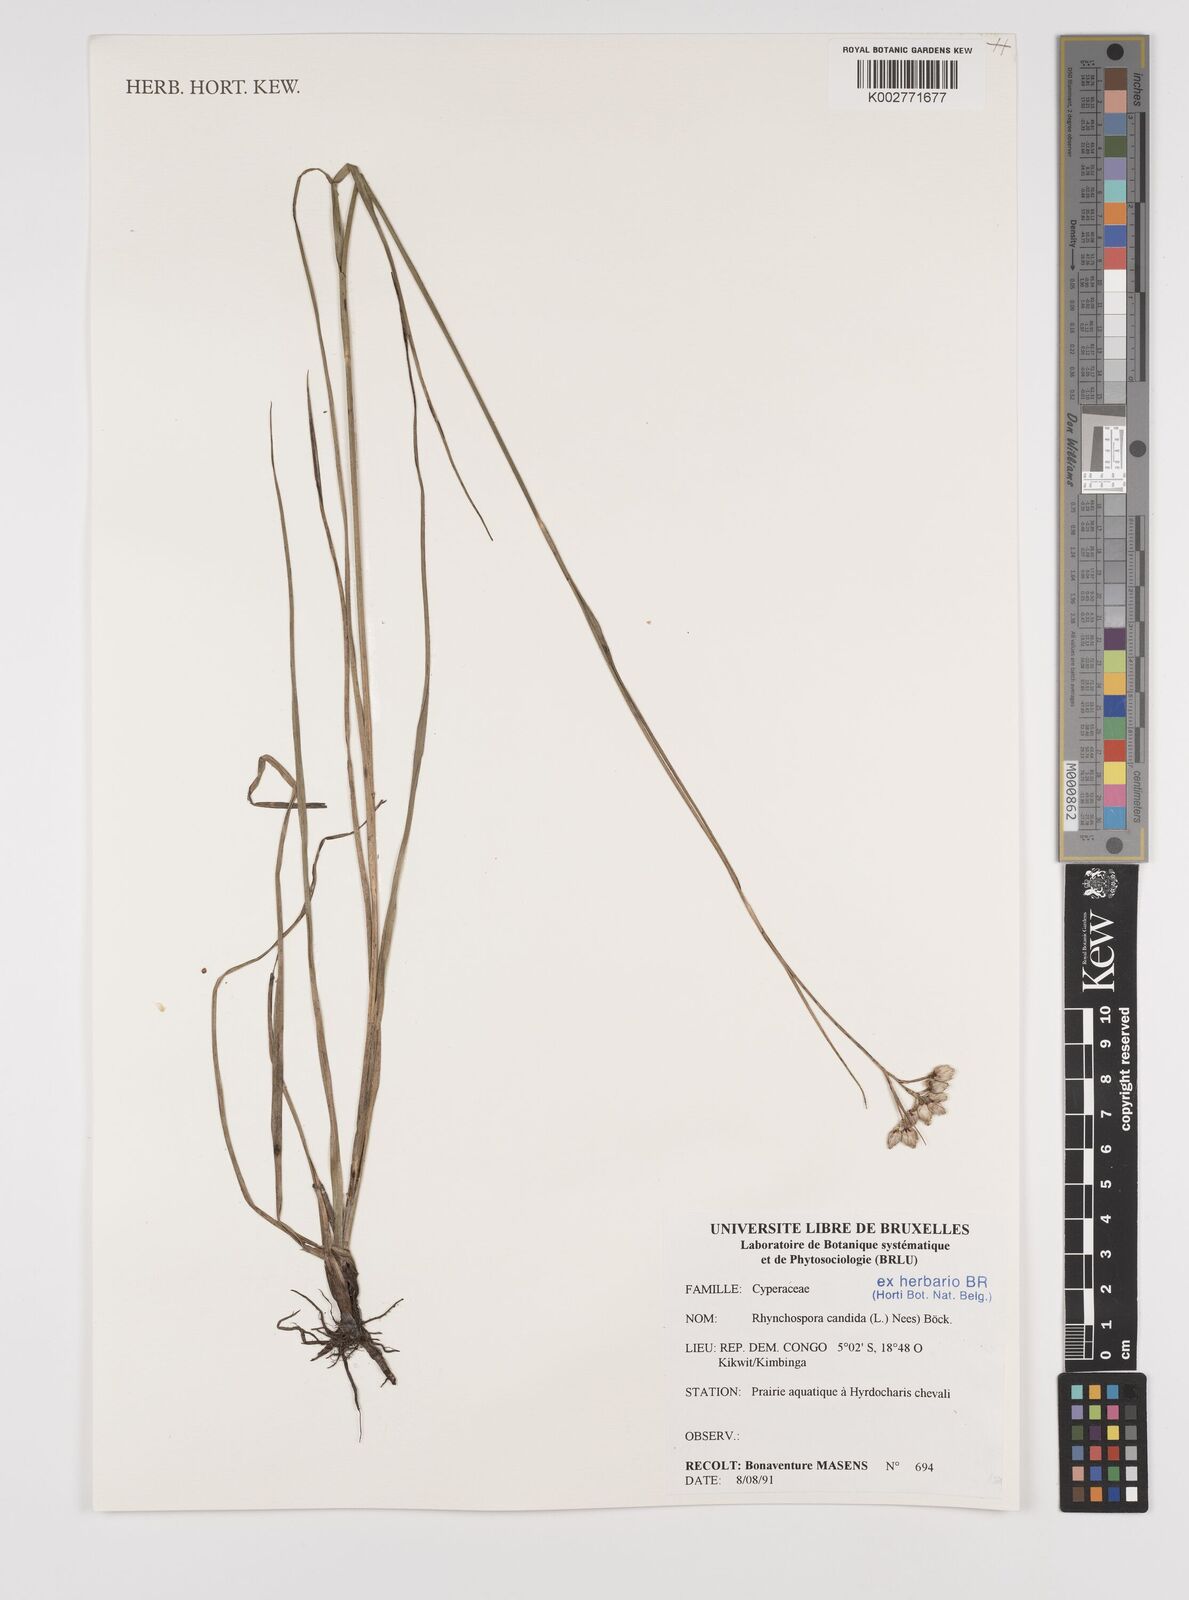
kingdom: Plantae
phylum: Tracheophyta
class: Liliopsida
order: Poales
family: Cyperaceae
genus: Rhynchospora
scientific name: Rhynchospora candida
